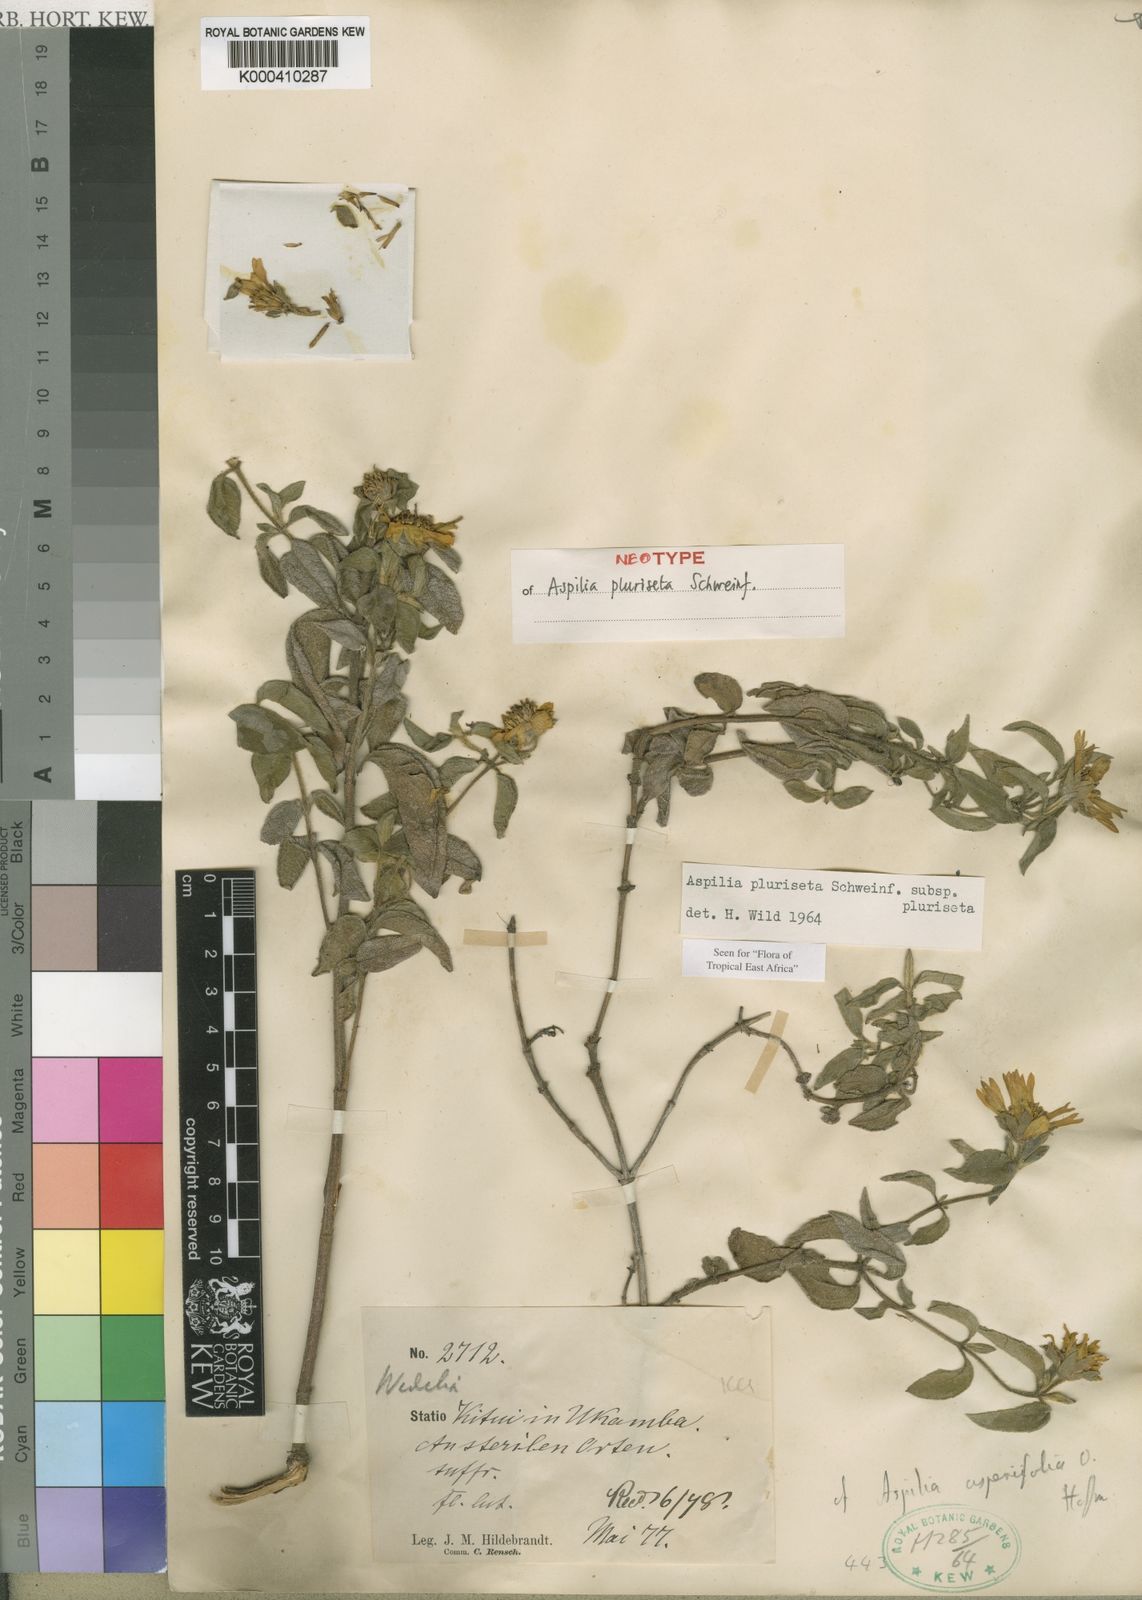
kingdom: Plantae
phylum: Tracheophyta
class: Magnoliopsida
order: Asterales
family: Asteraceae
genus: Aspilia
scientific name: Aspilia
